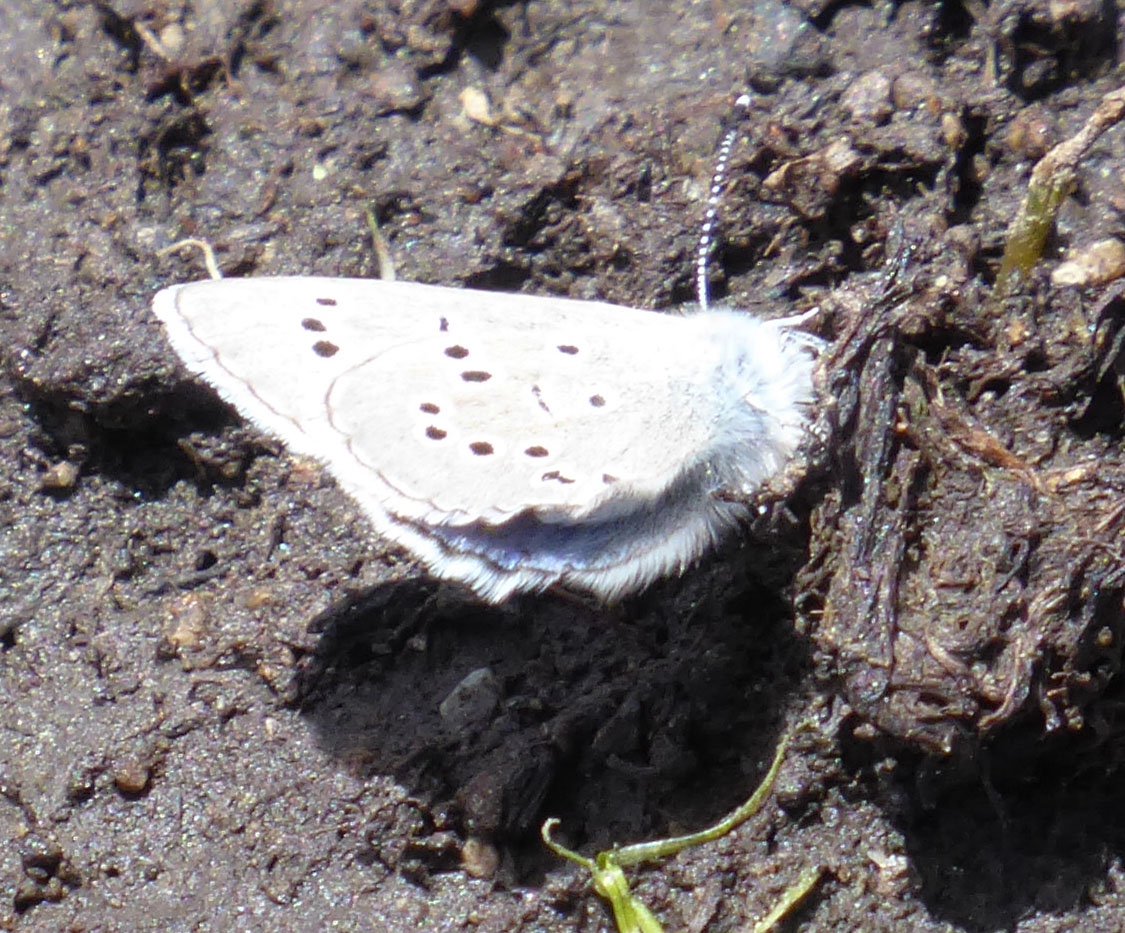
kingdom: Animalia
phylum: Arthropoda
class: Insecta
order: Lepidoptera
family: Lycaenidae
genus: Glaucopsyche
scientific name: Glaucopsyche lygdamus
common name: Silvery Blue
